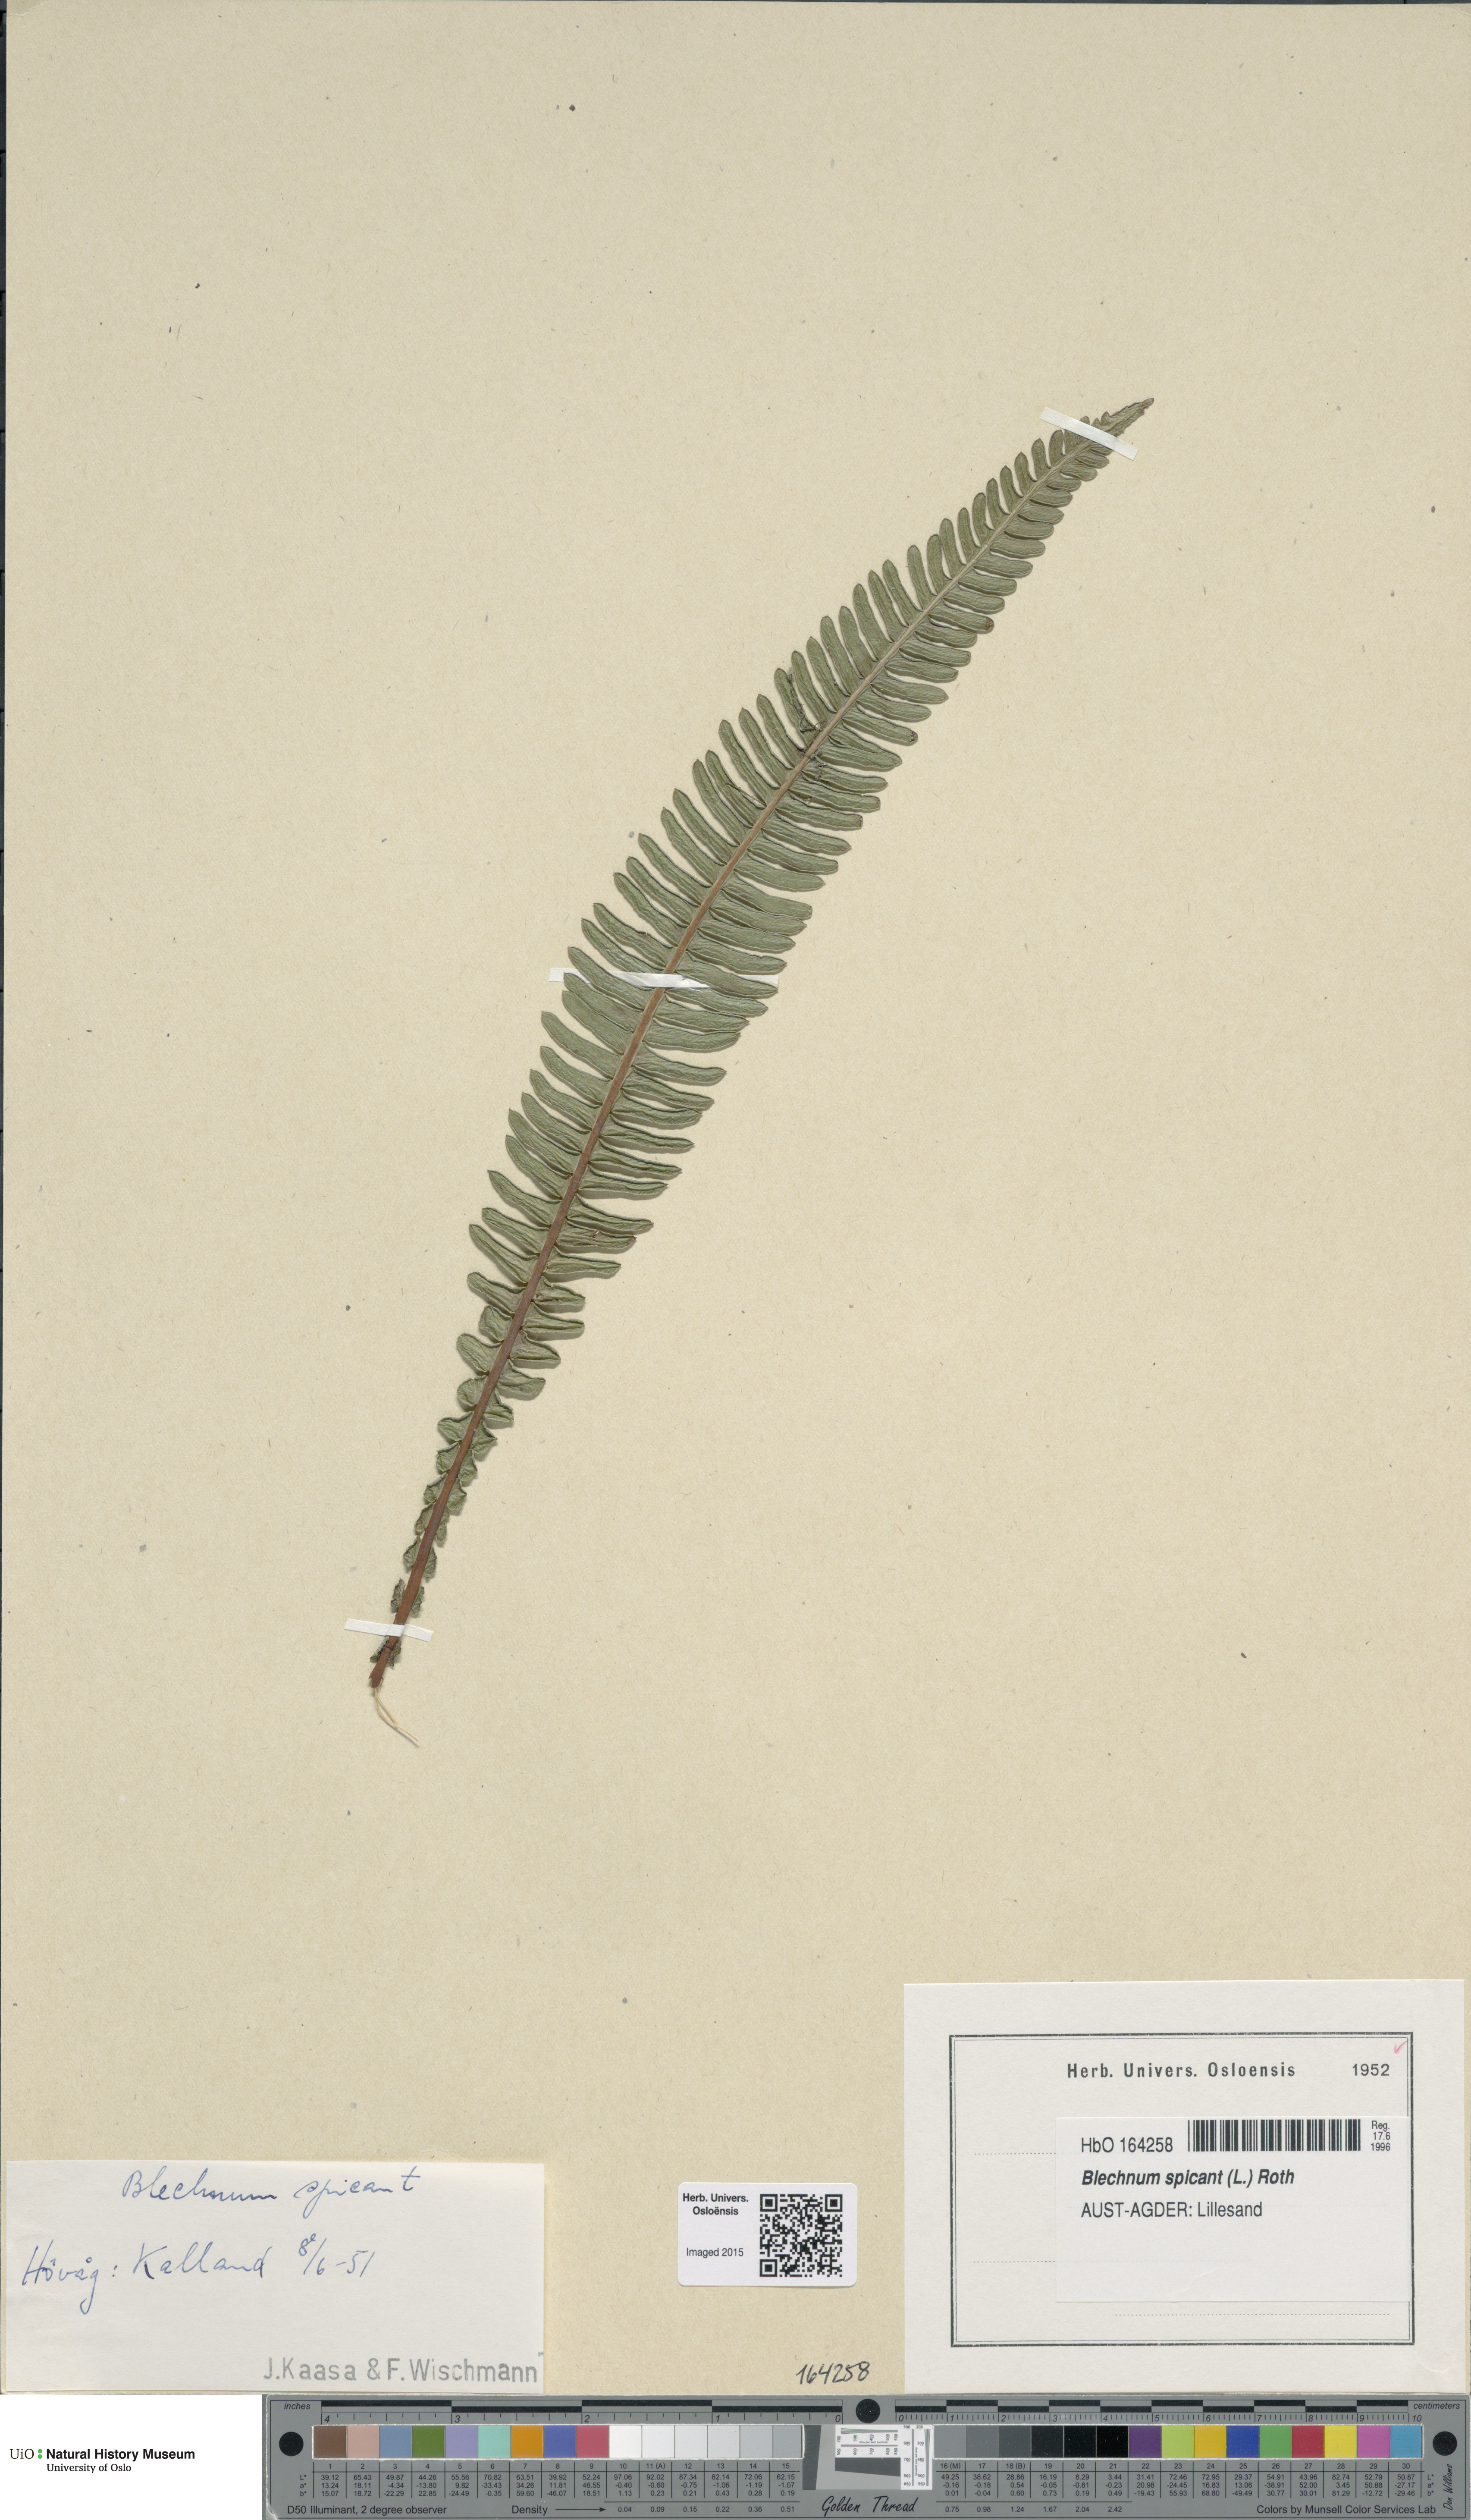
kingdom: Plantae
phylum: Tracheophyta
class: Polypodiopsida
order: Polypodiales
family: Blechnaceae
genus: Struthiopteris
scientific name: Struthiopteris spicant
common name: Deer fern
